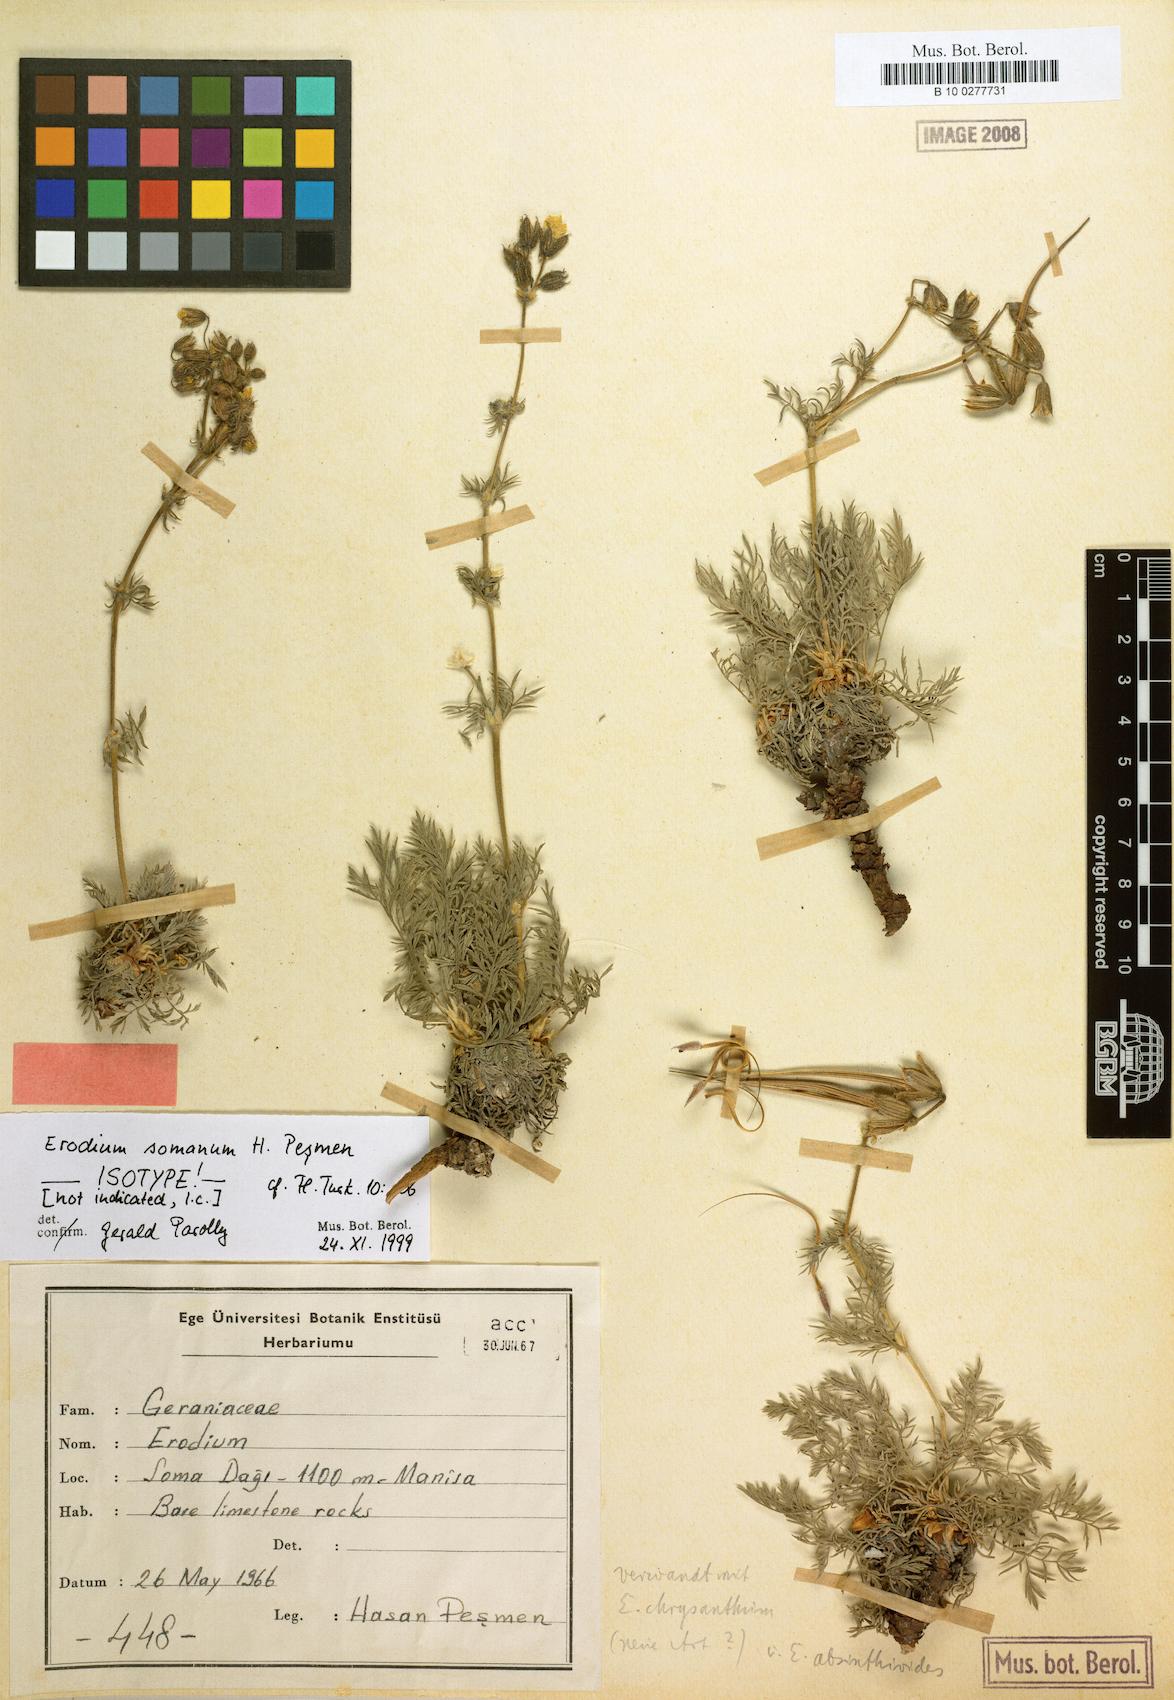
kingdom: Plantae
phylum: Tracheophyta
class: Magnoliopsida
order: Geraniales
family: Geraniaceae
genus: Erodium
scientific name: Erodium sibthorpianum
